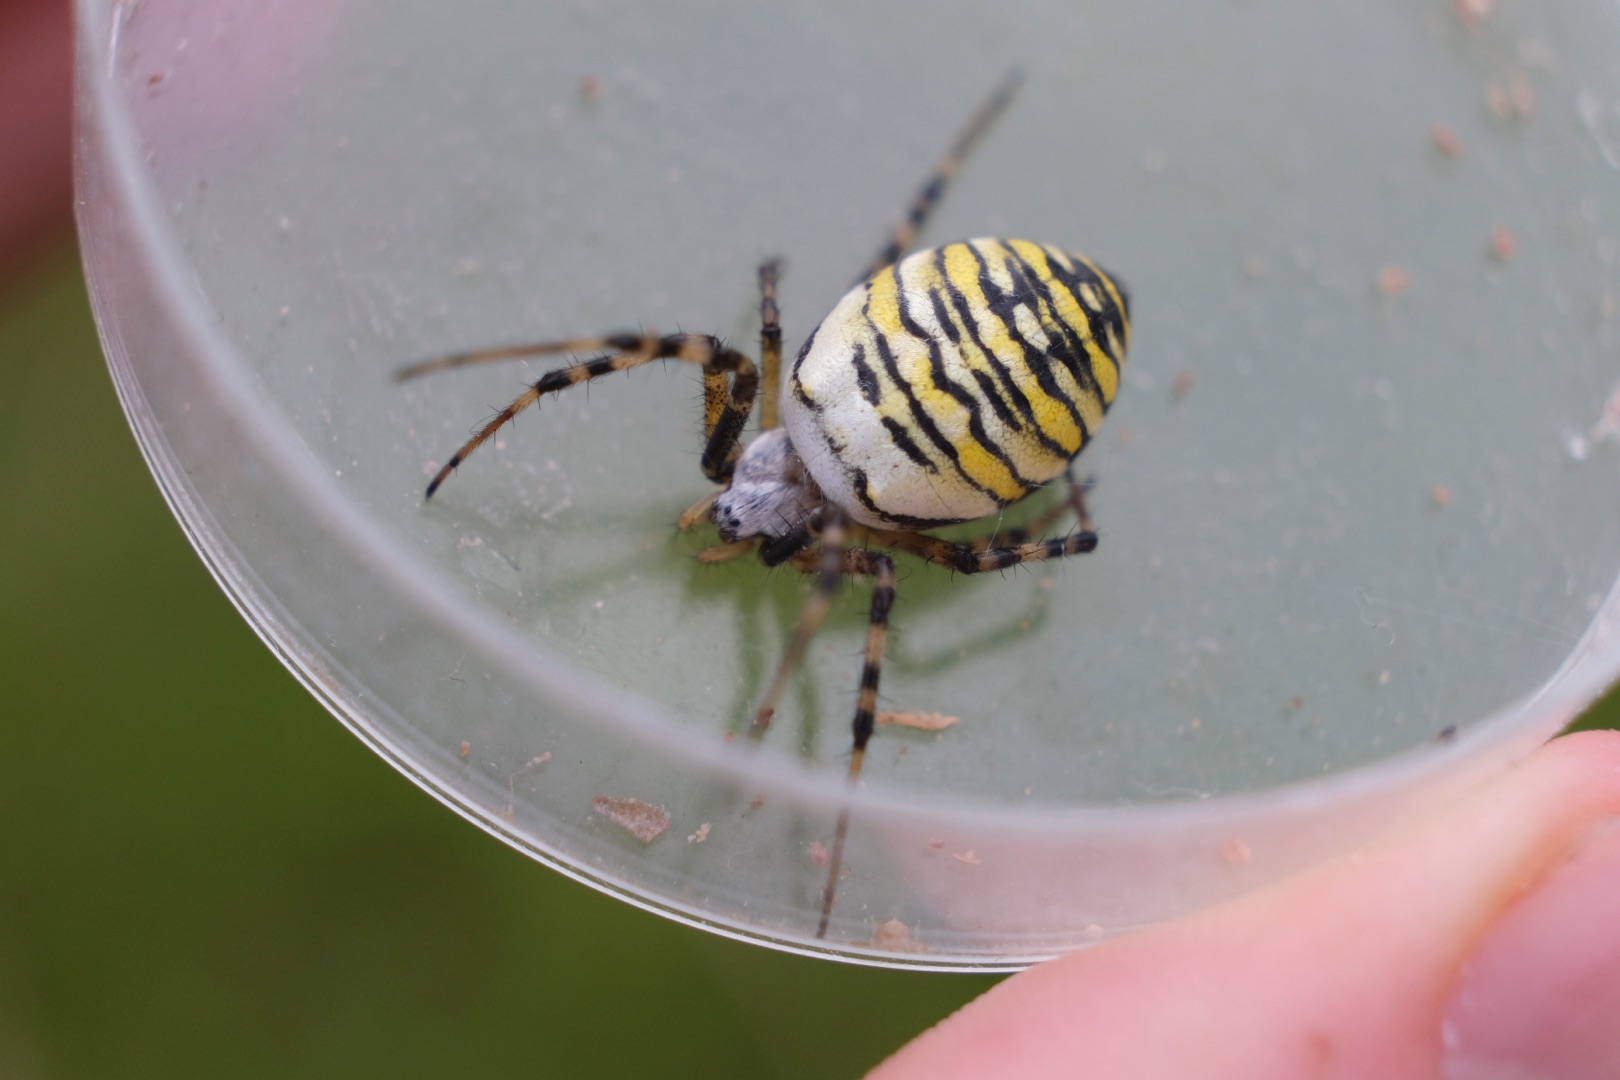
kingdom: Animalia
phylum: Arthropoda
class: Arachnida
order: Araneae
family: Araneidae
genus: Argiope
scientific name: Argiope bruennichi
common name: Hvepseedderkop
